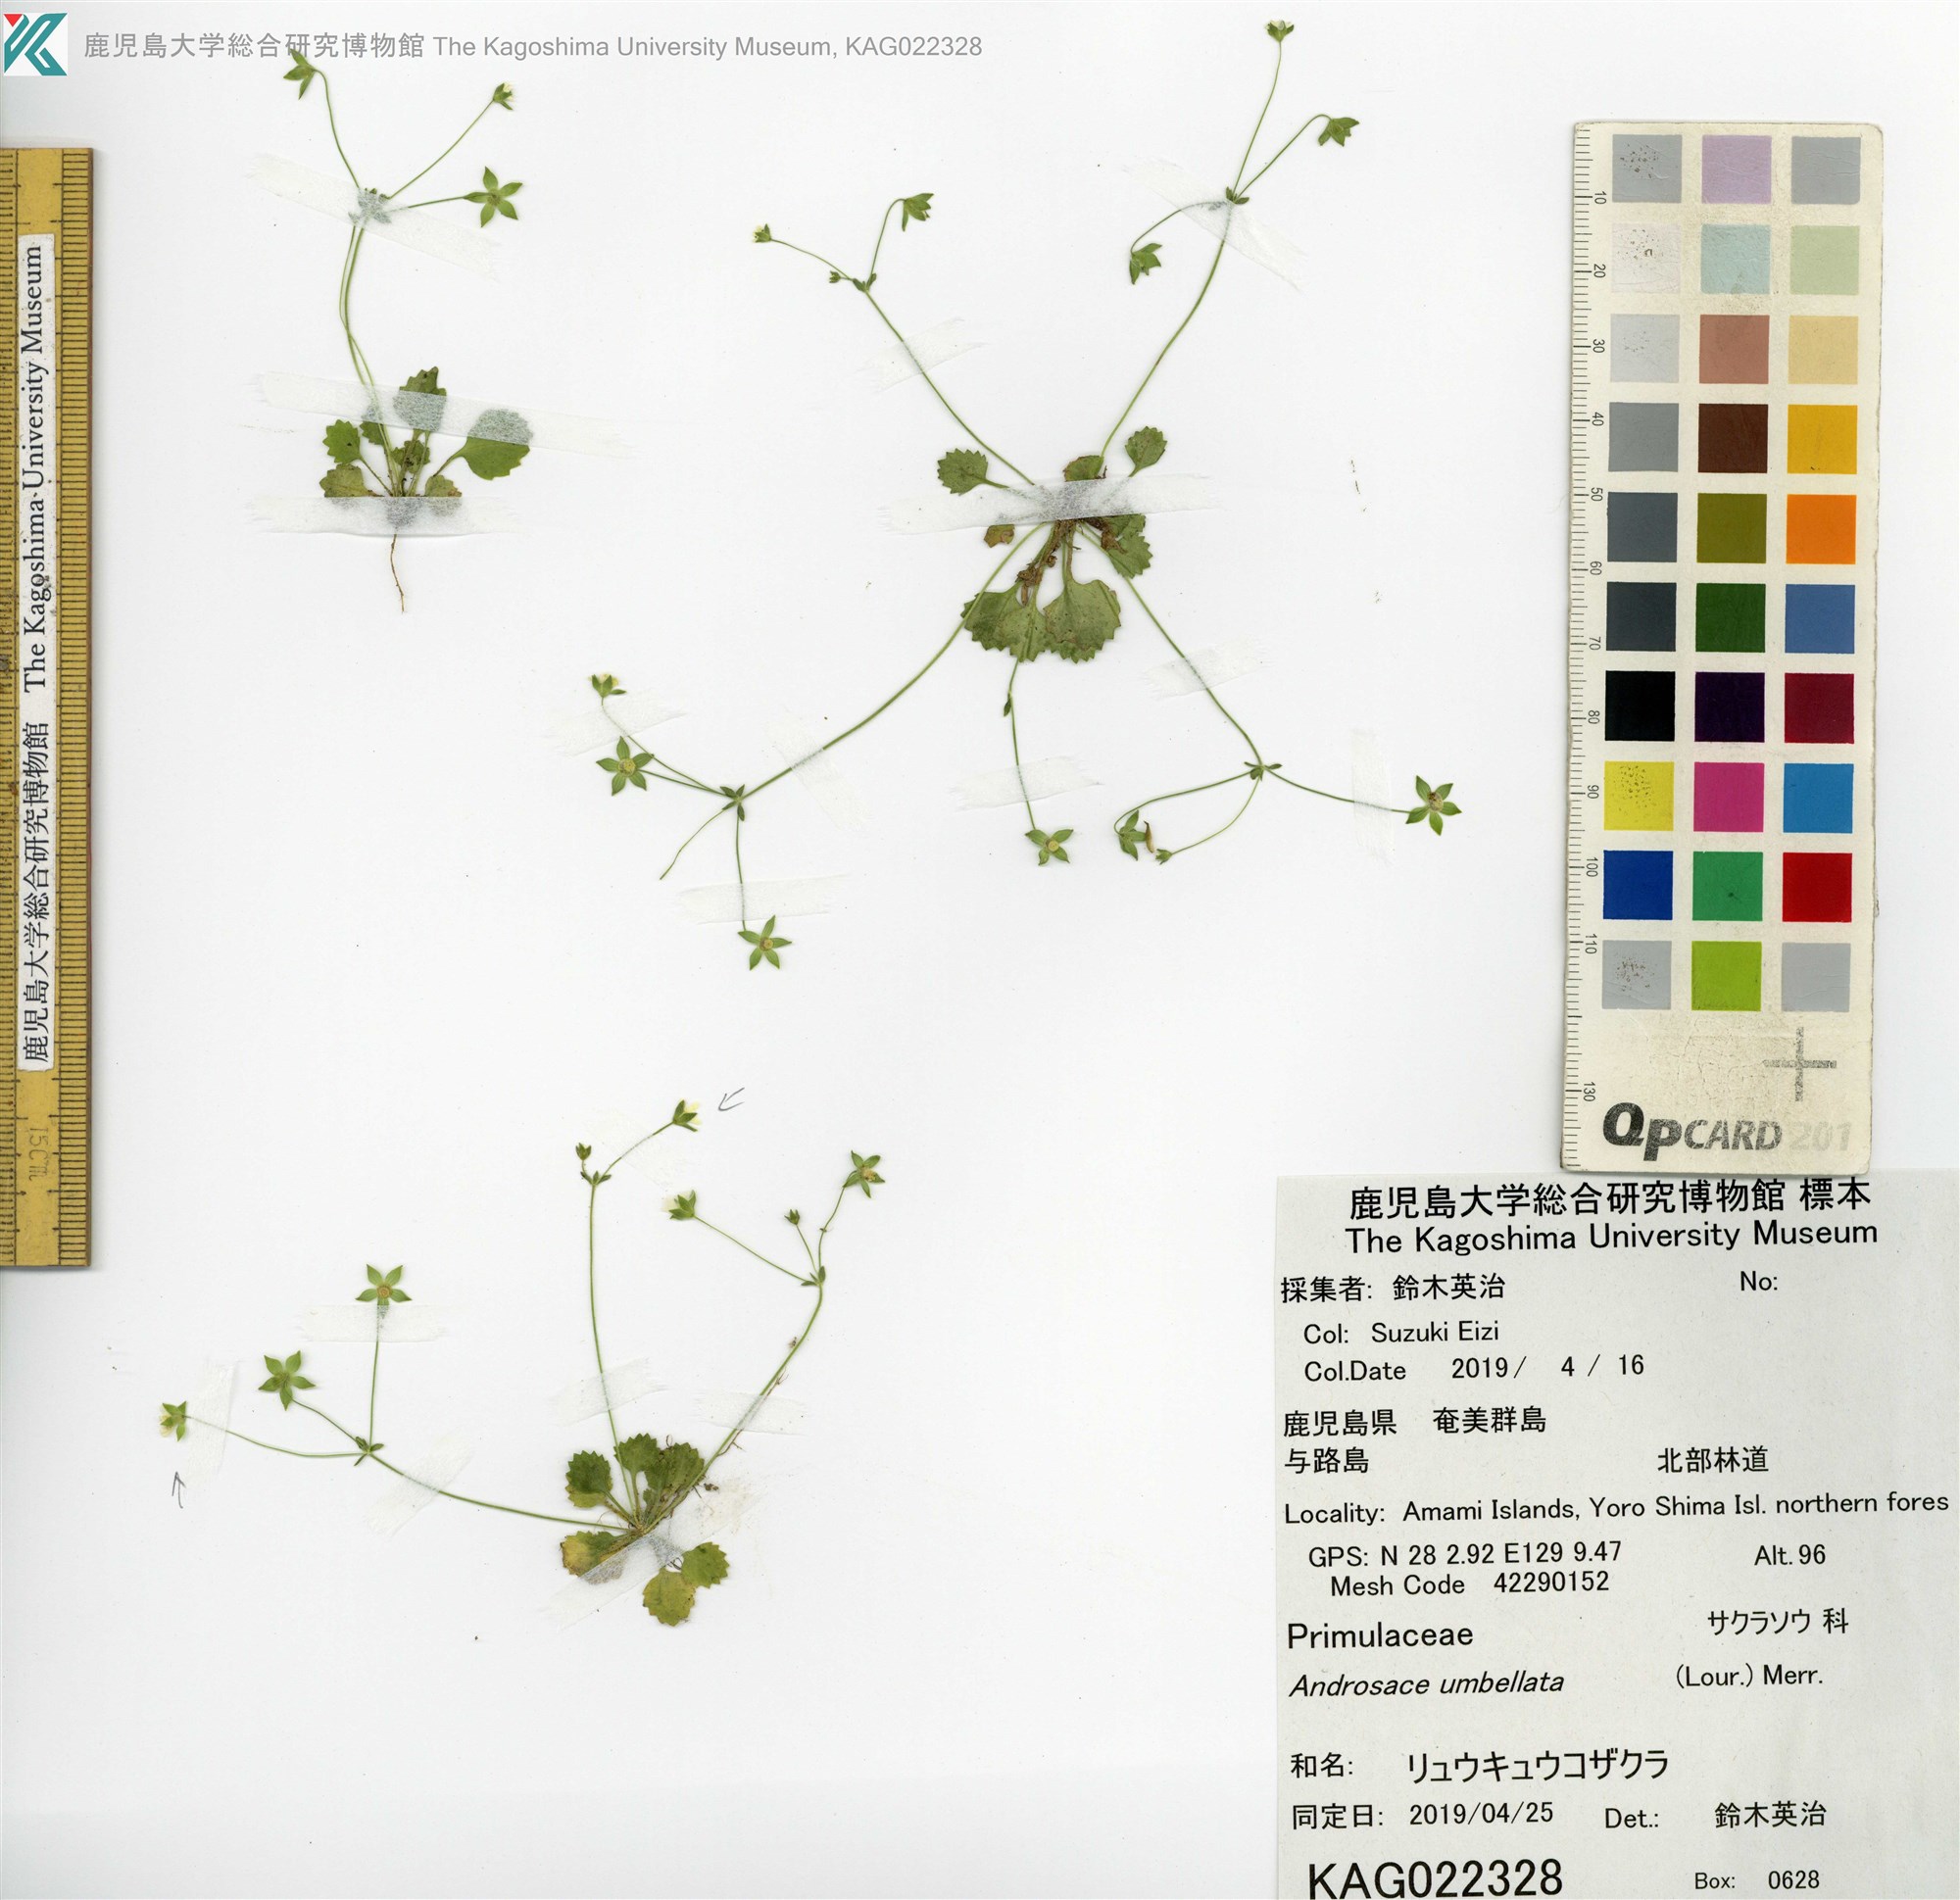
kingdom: Plantae
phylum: Tracheophyta
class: Magnoliopsida
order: Ericales
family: Primulaceae
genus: Androsace
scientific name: Androsace umbellata
